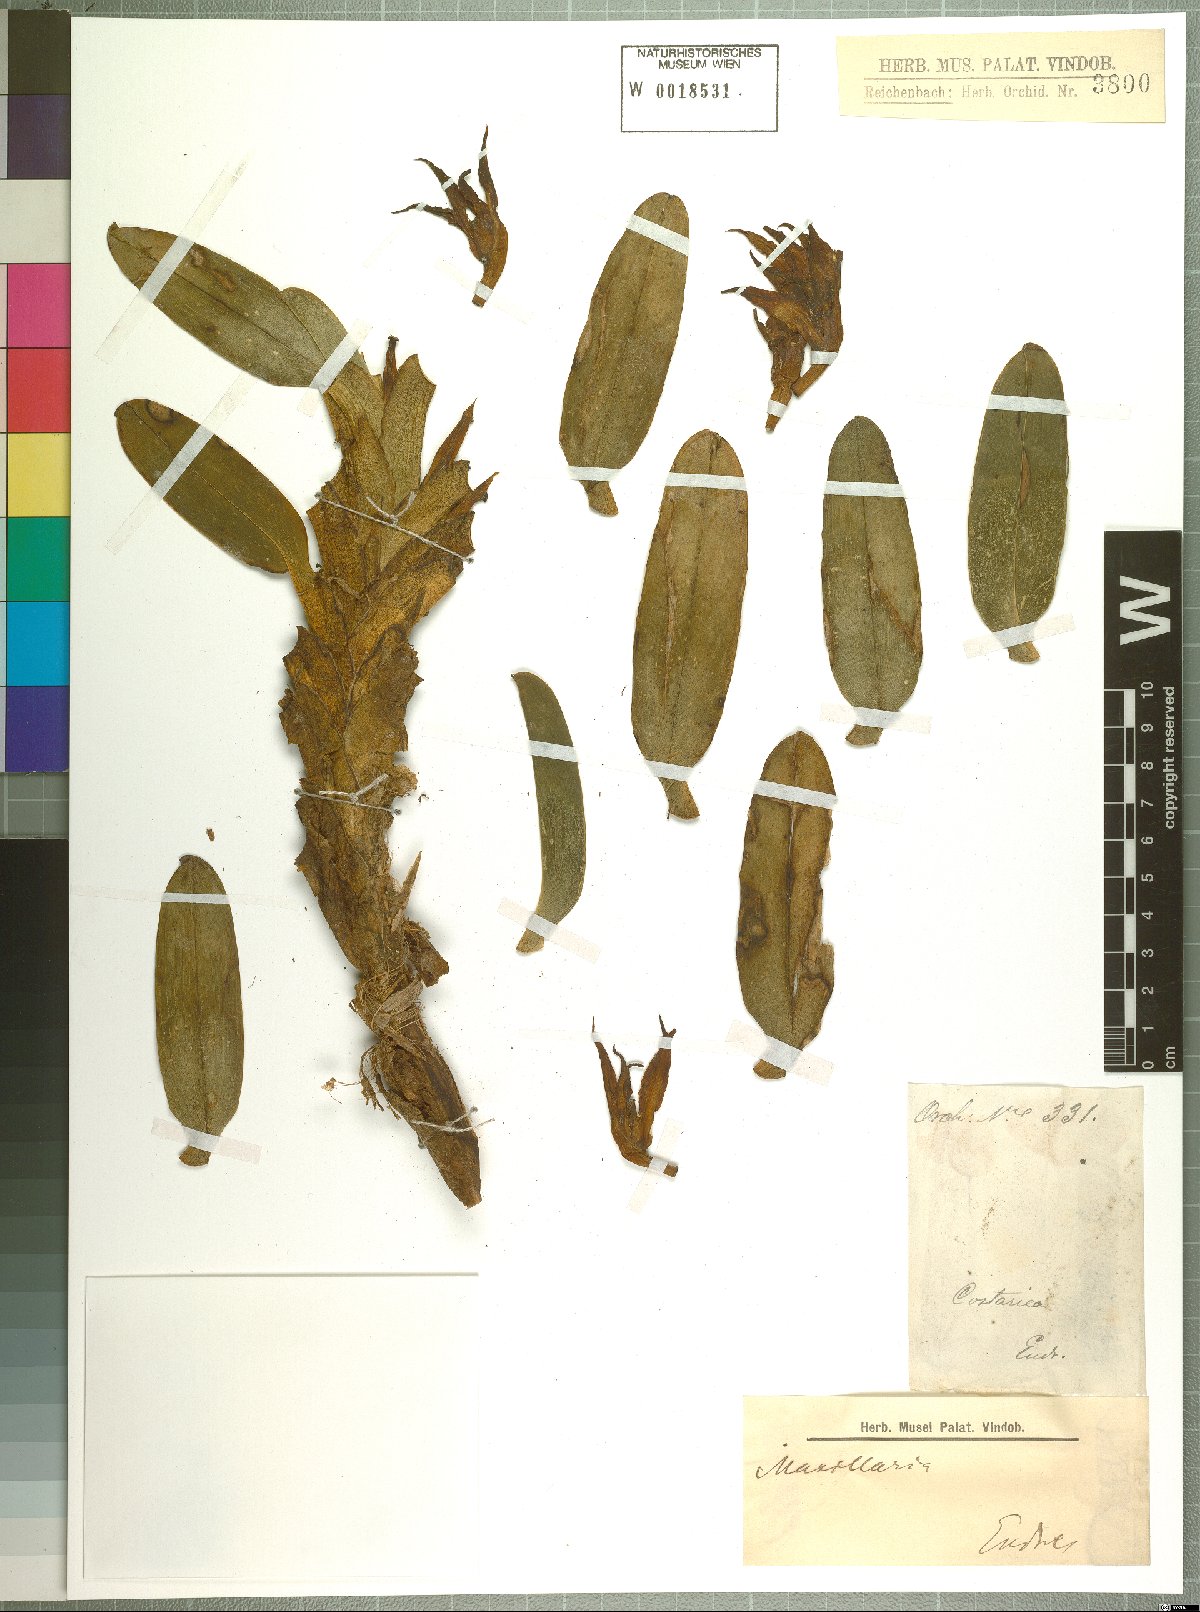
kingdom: Plantae
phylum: Tracheophyta
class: Liliopsida
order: Asparagales
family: Orchidaceae
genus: Maxillaria
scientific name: Maxillaria
